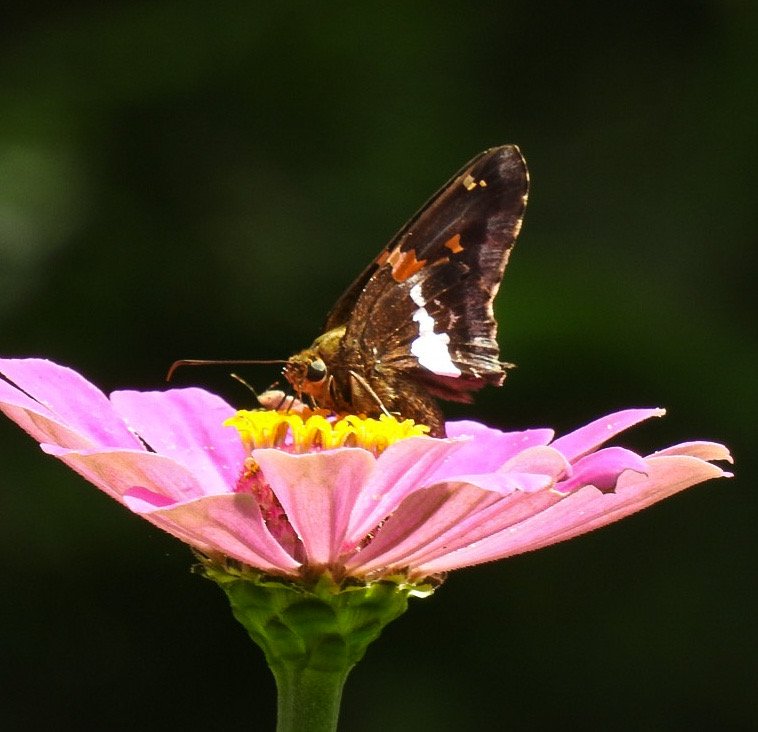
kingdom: Animalia
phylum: Arthropoda
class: Insecta
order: Lepidoptera
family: Hesperiidae
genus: Epargyreus
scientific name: Epargyreus clarus
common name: Silver-spotted Skipper
